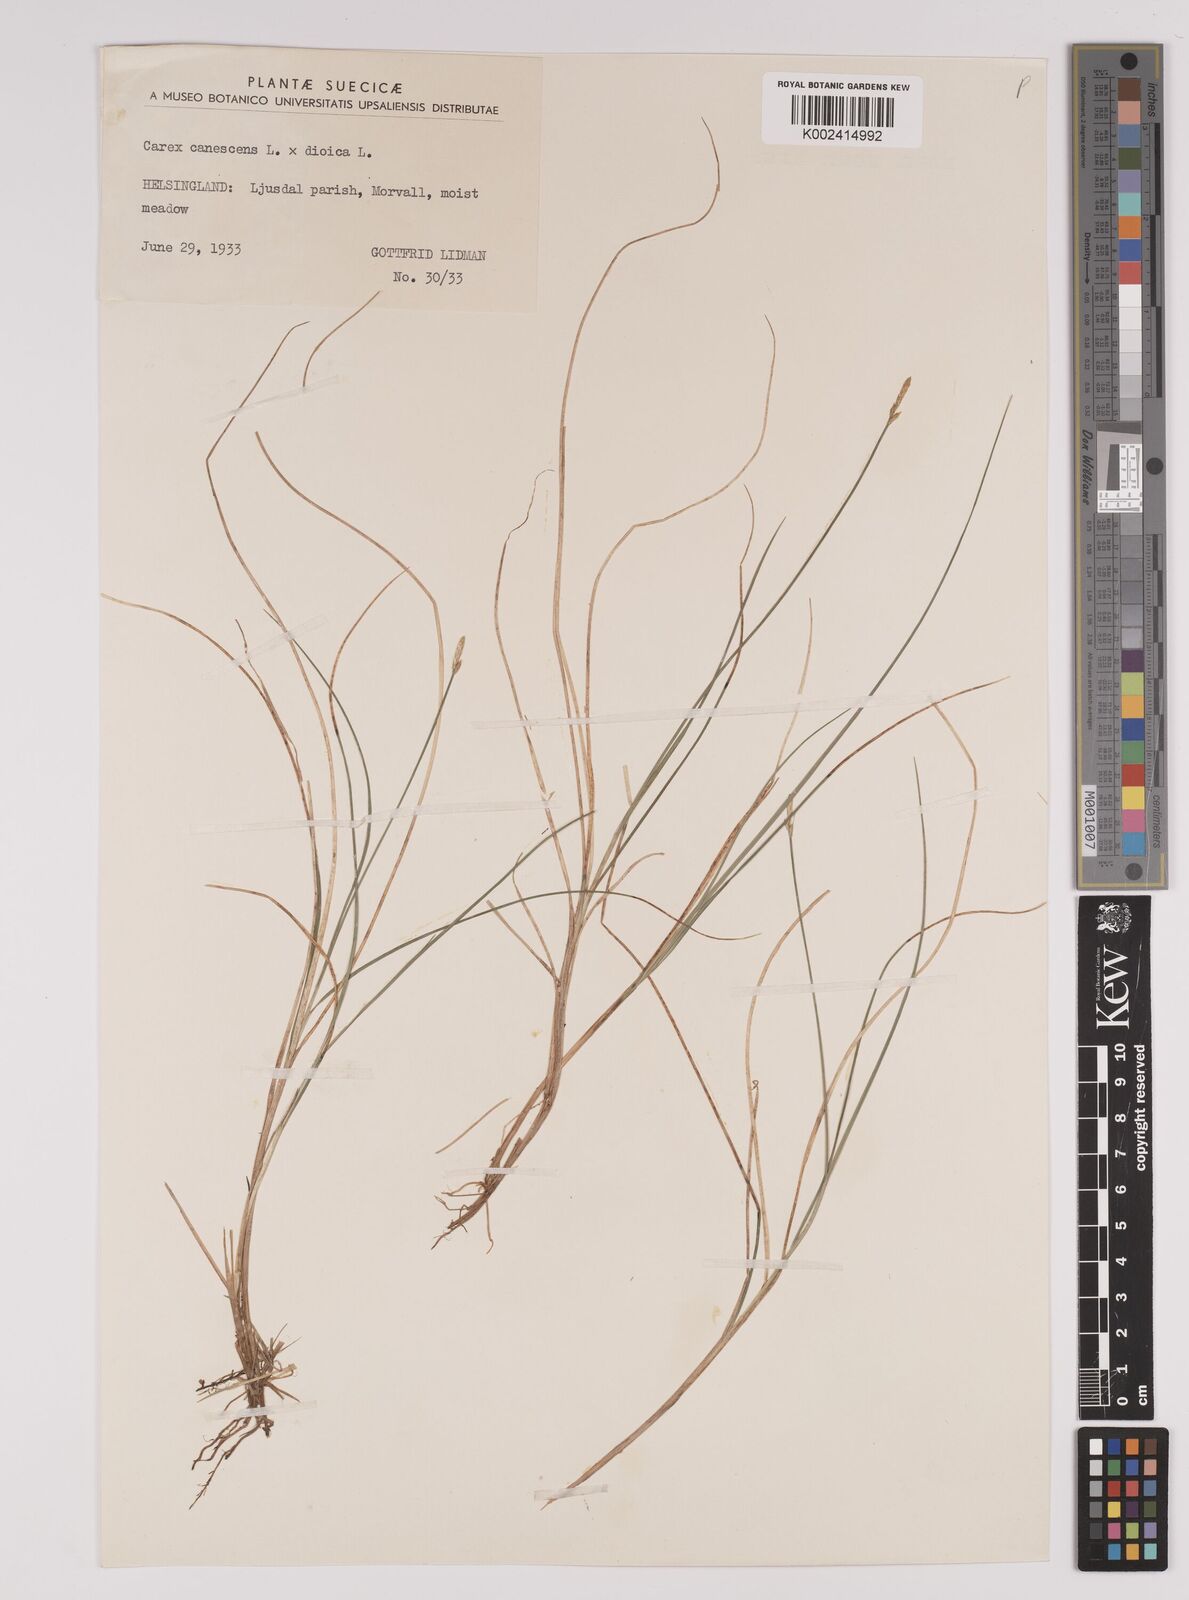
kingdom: Plantae
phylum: Tracheophyta
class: Liliopsida
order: Poales
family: Cyperaceae
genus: Carex
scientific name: Carex dioica
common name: Dioecious sedge
